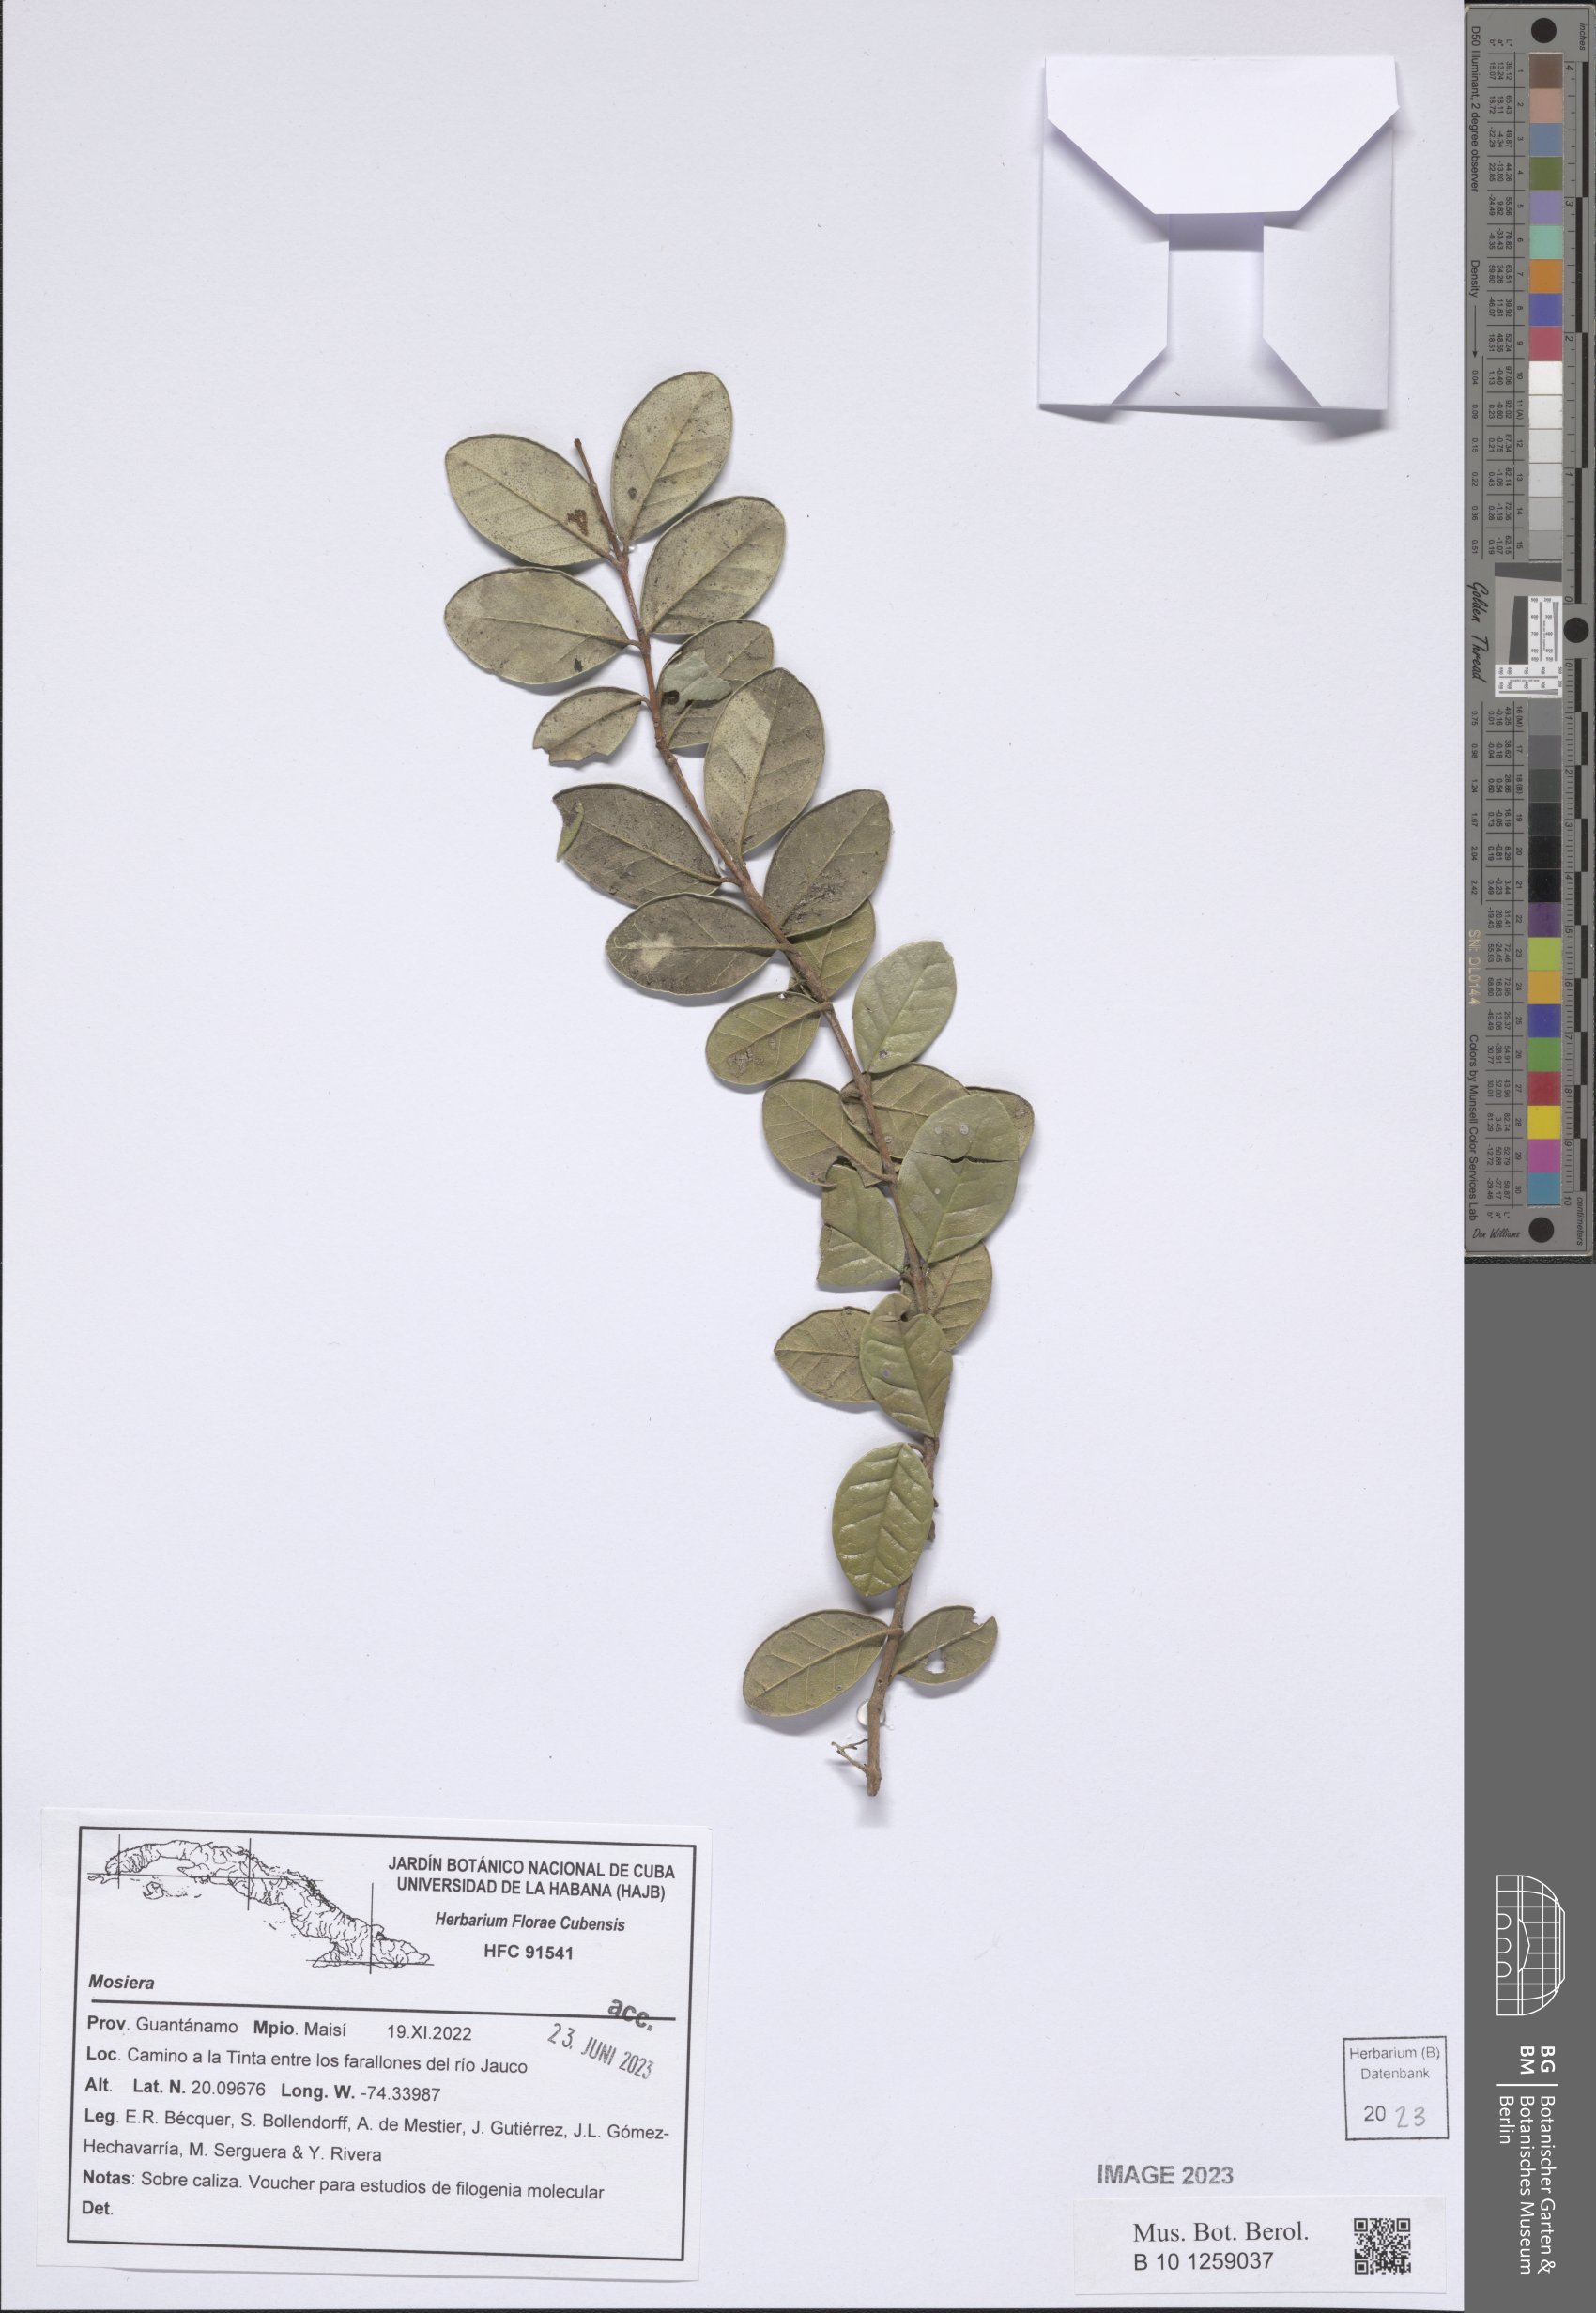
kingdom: Plantae
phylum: Tracheophyta
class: Magnoliopsida
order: Myrtales
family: Myrtaceae
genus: Mosiera
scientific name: Mosiera
